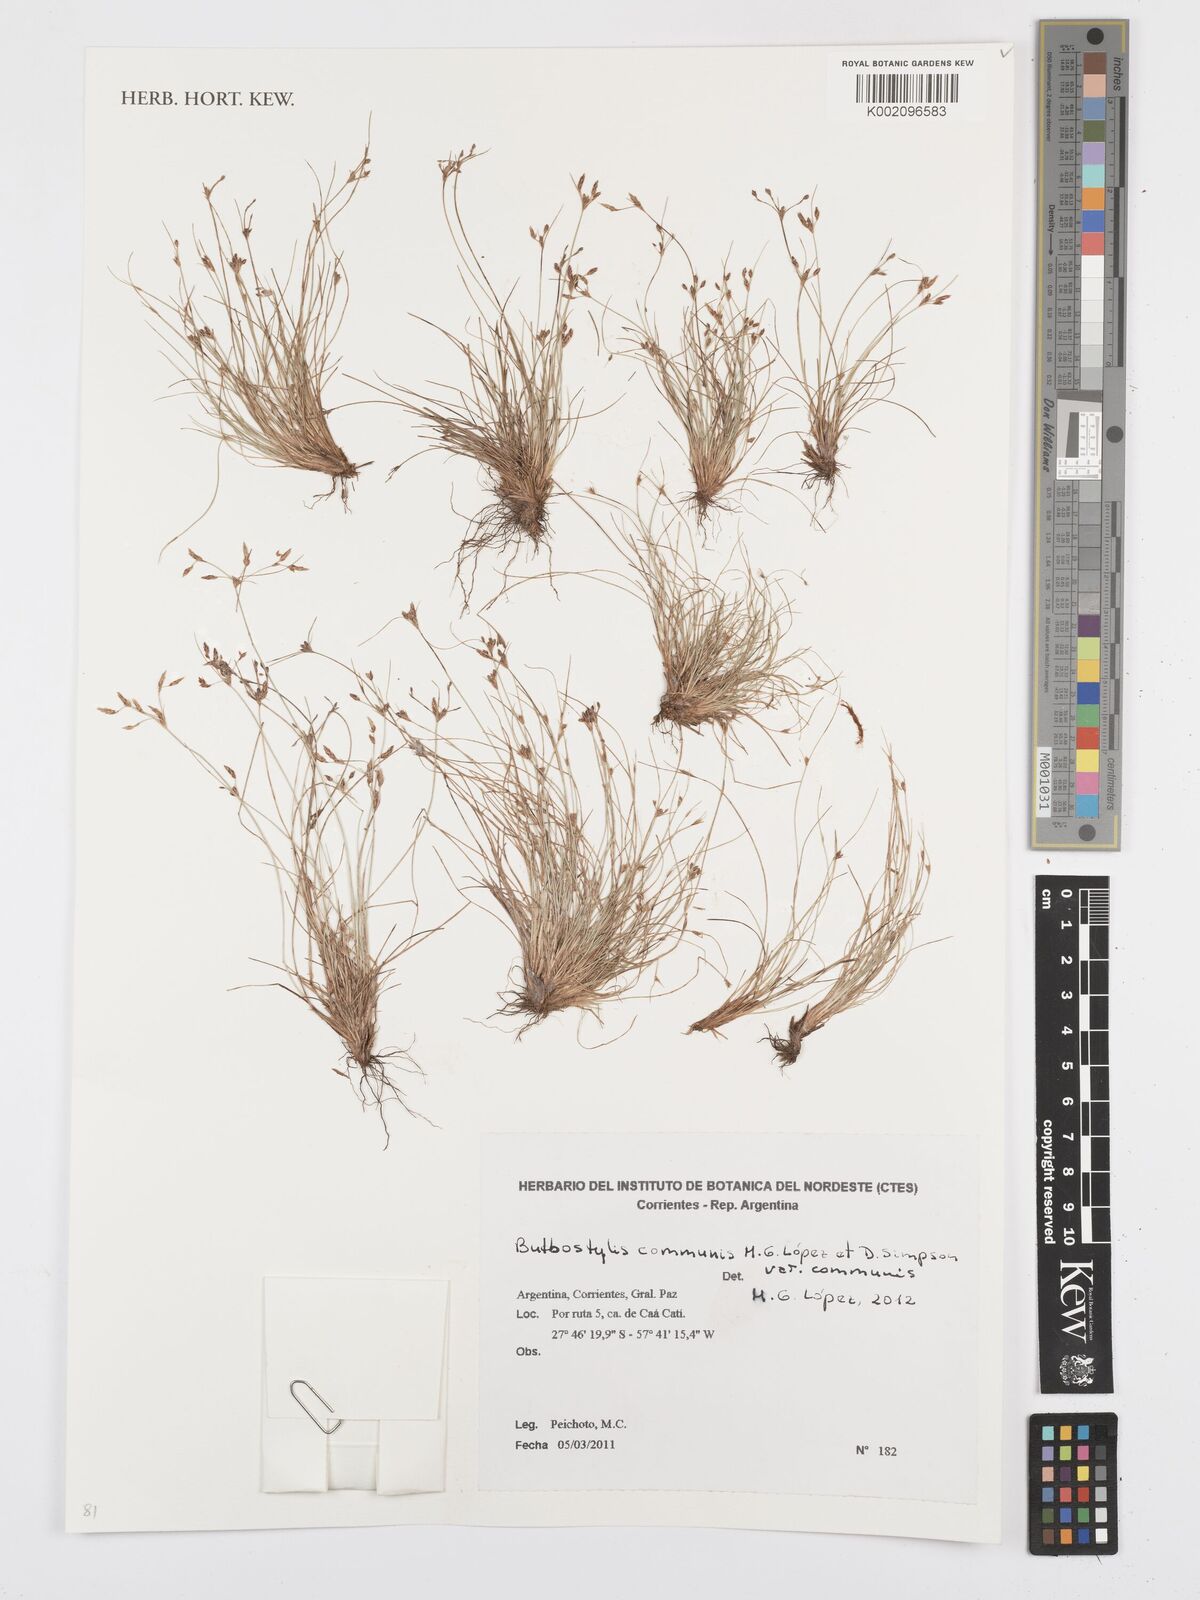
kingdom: Plantae
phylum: Tracheophyta
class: Liliopsida
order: Poales
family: Cyperaceae
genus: Bulbostylis
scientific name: Bulbostylis communis
